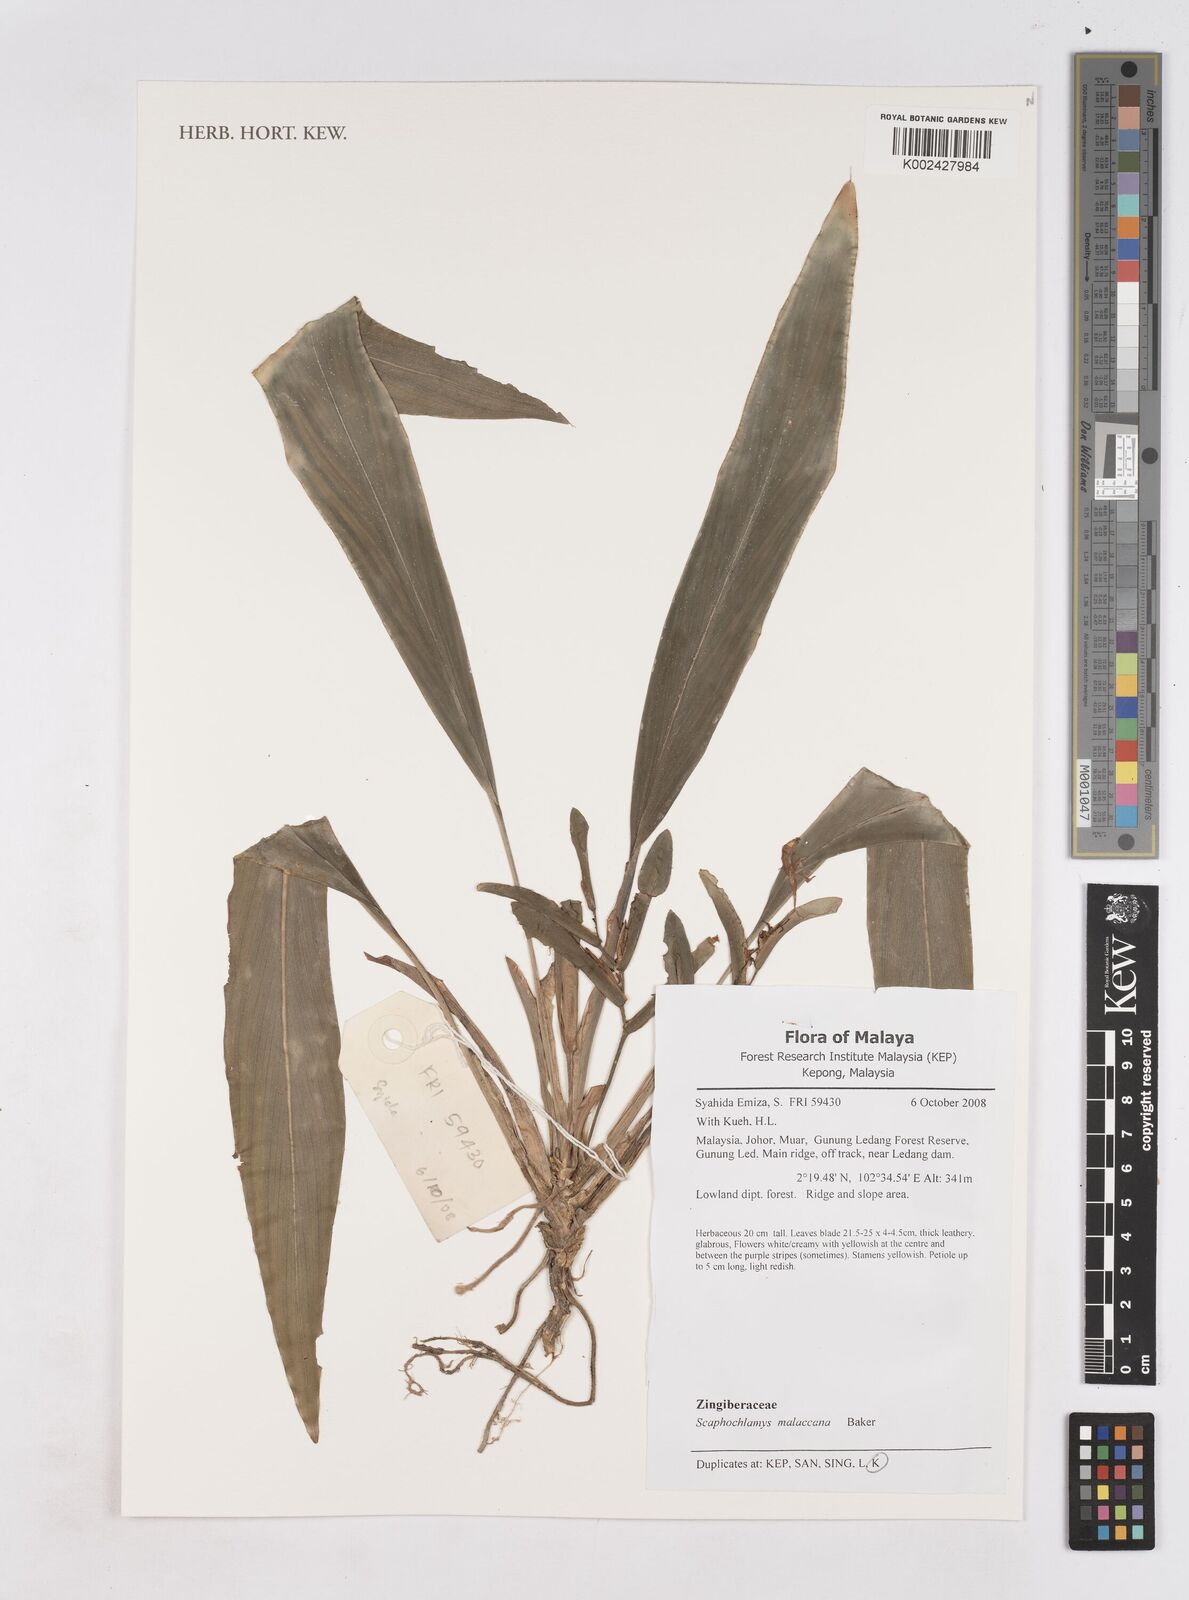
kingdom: Plantae
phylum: Tracheophyta
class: Liliopsida
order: Zingiberales
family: Zingiberaceae
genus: Scaphochlamys
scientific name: Scaphochlamys malaccana
